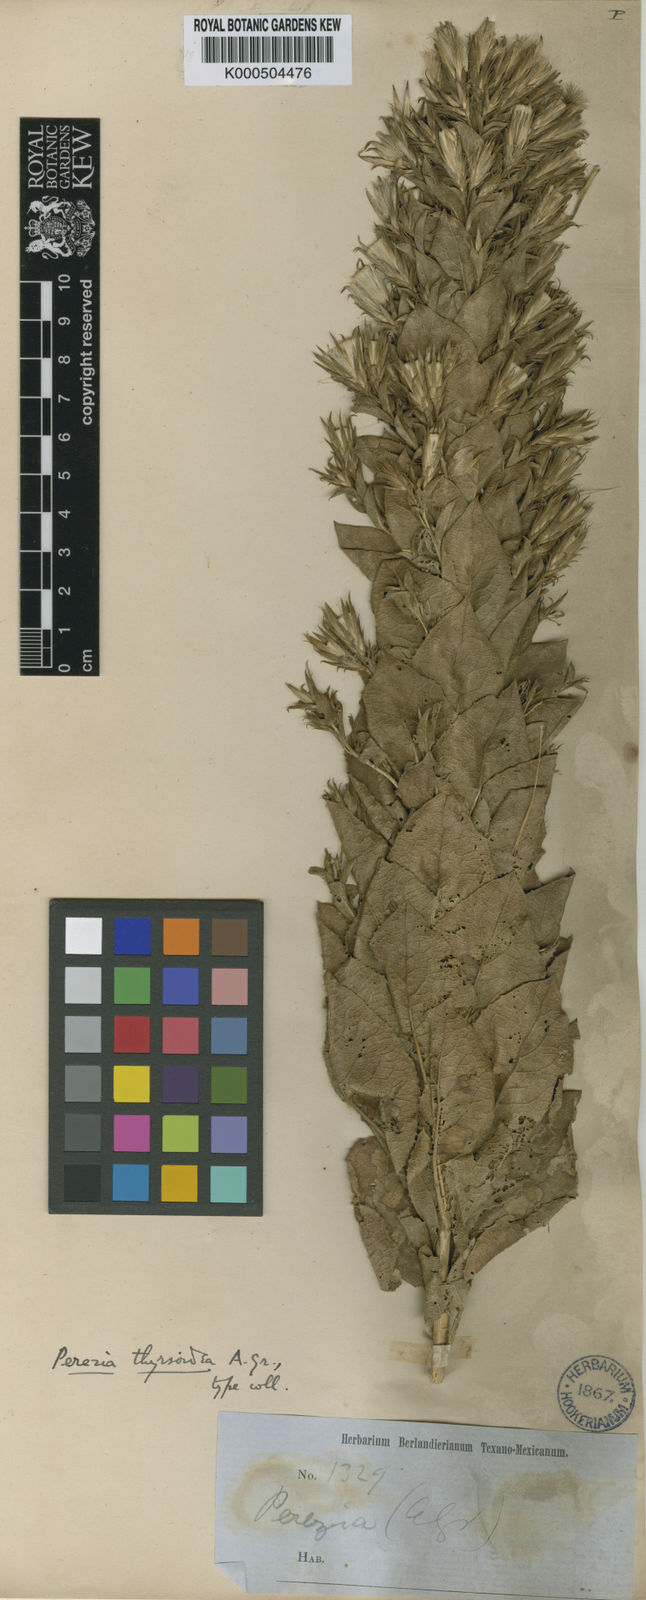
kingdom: Plantae
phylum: Tracheophyta
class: Magnoliopsida
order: Asterales
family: Asteraceae
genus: Acourtia
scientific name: Acourtia moschata
